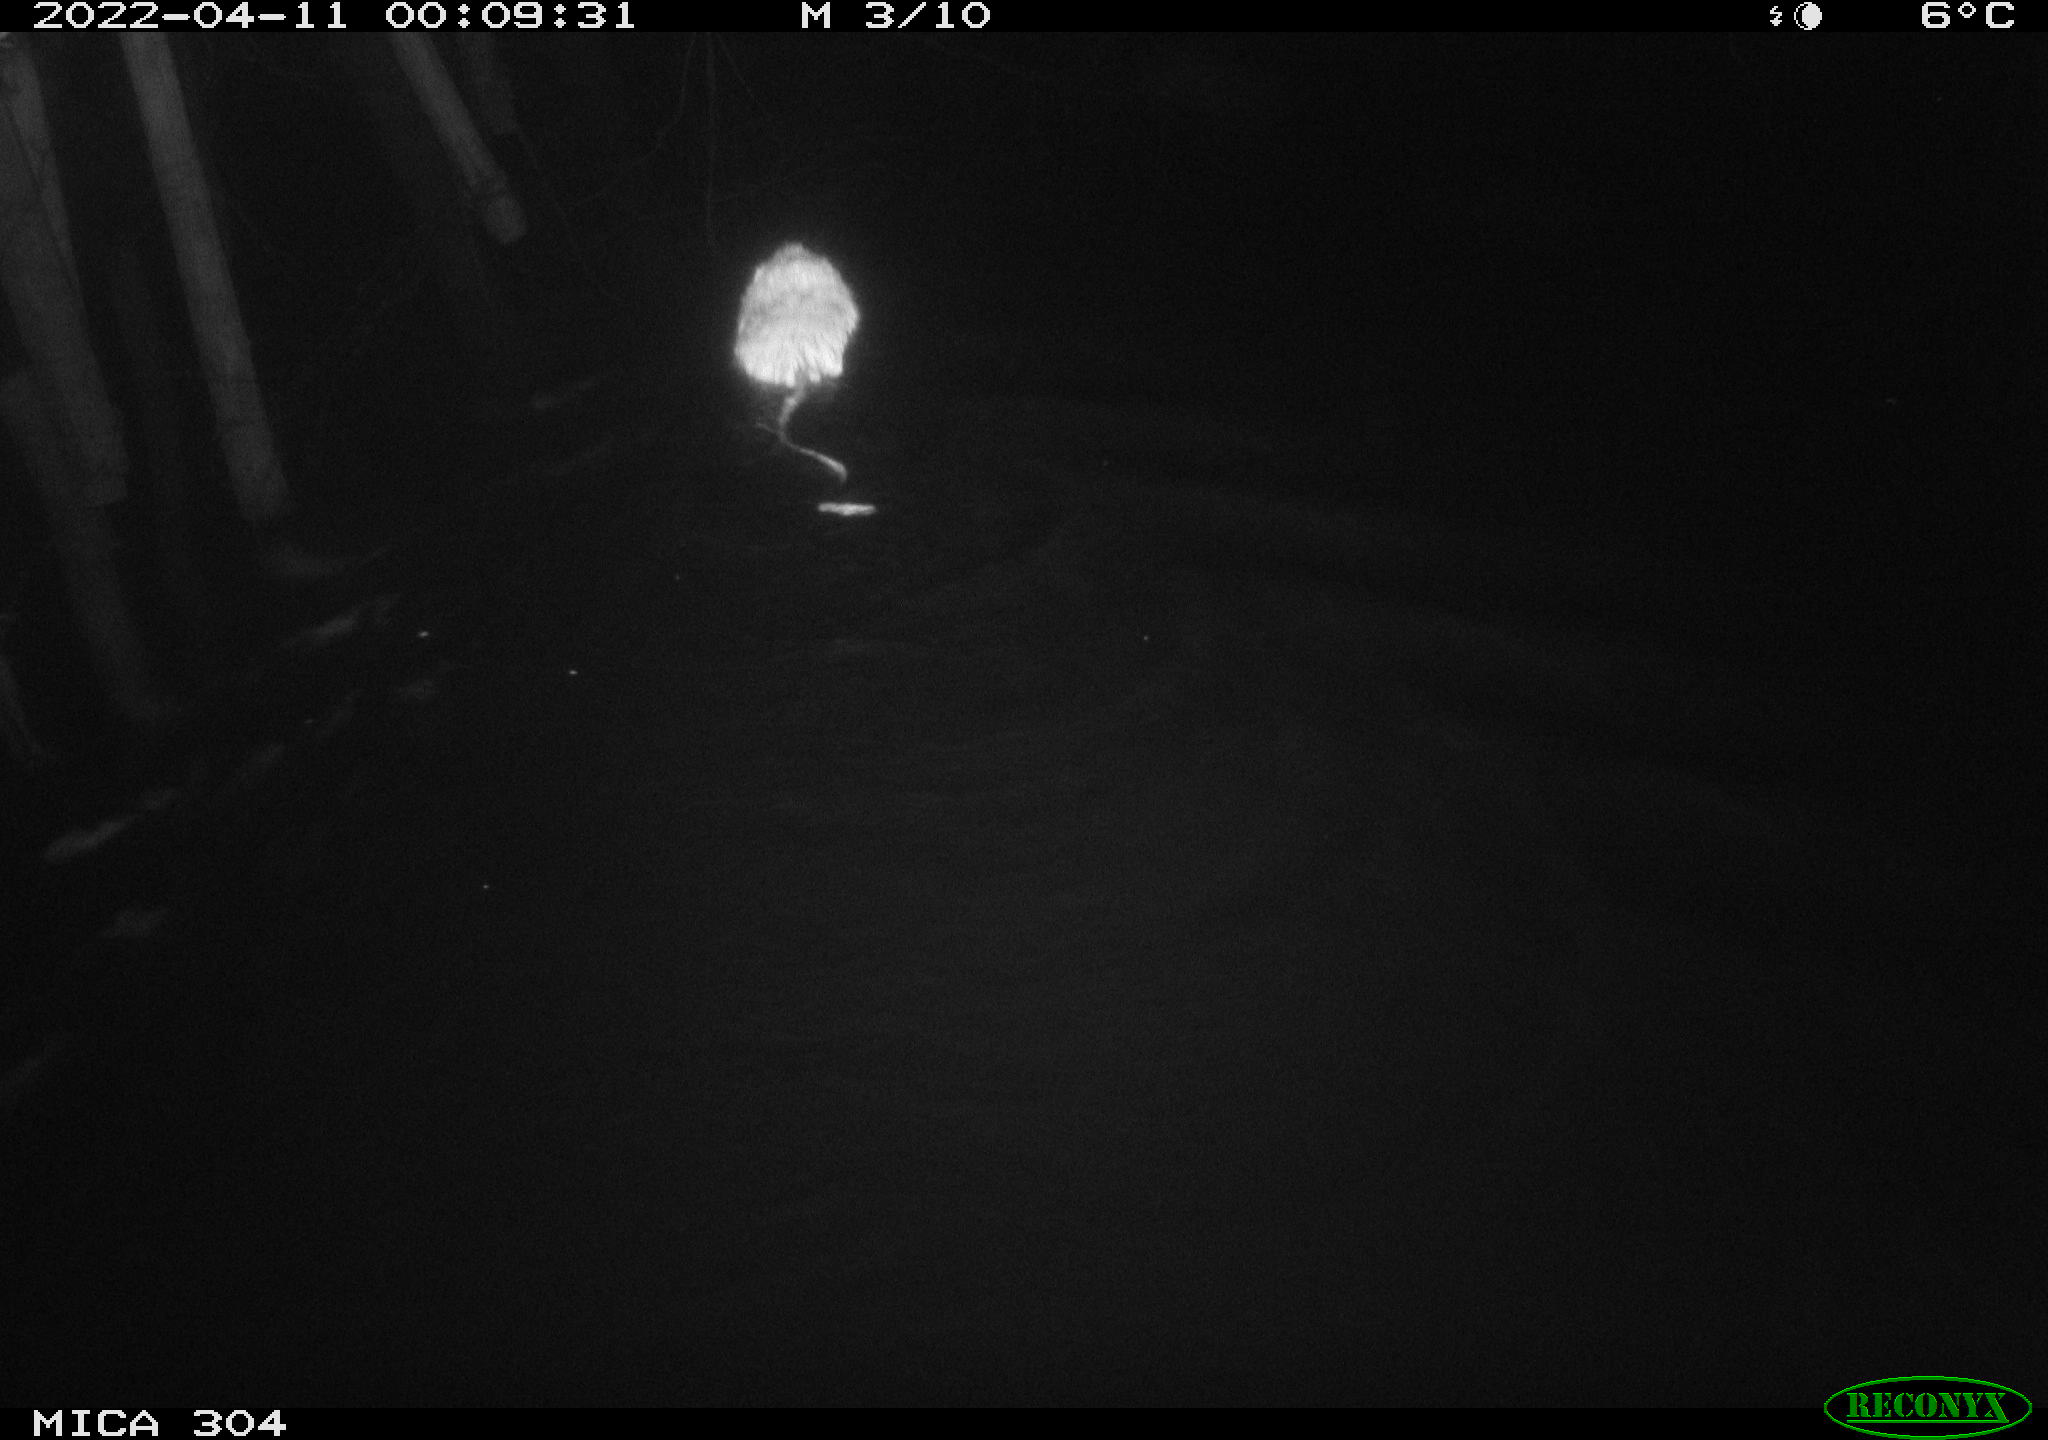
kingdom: Animalia
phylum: Chordata
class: Mammalia
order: Rodentia
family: Cricetidae
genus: Ondatra
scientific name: Ondatra zibethicus
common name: Muskrat
